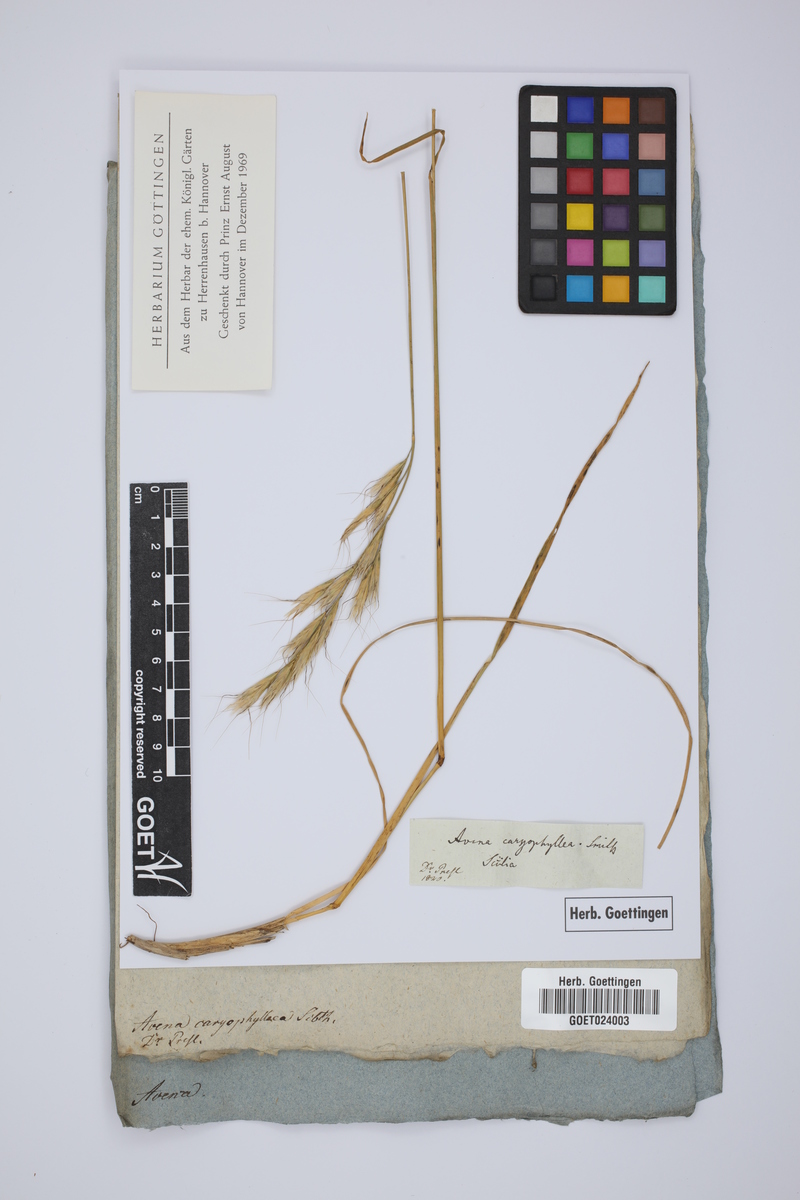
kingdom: Plantae
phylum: Tracheophyta
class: Liliopsida
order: Poales
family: Poaceae
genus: Helictotrichon
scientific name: Helictotrichon cycladum
